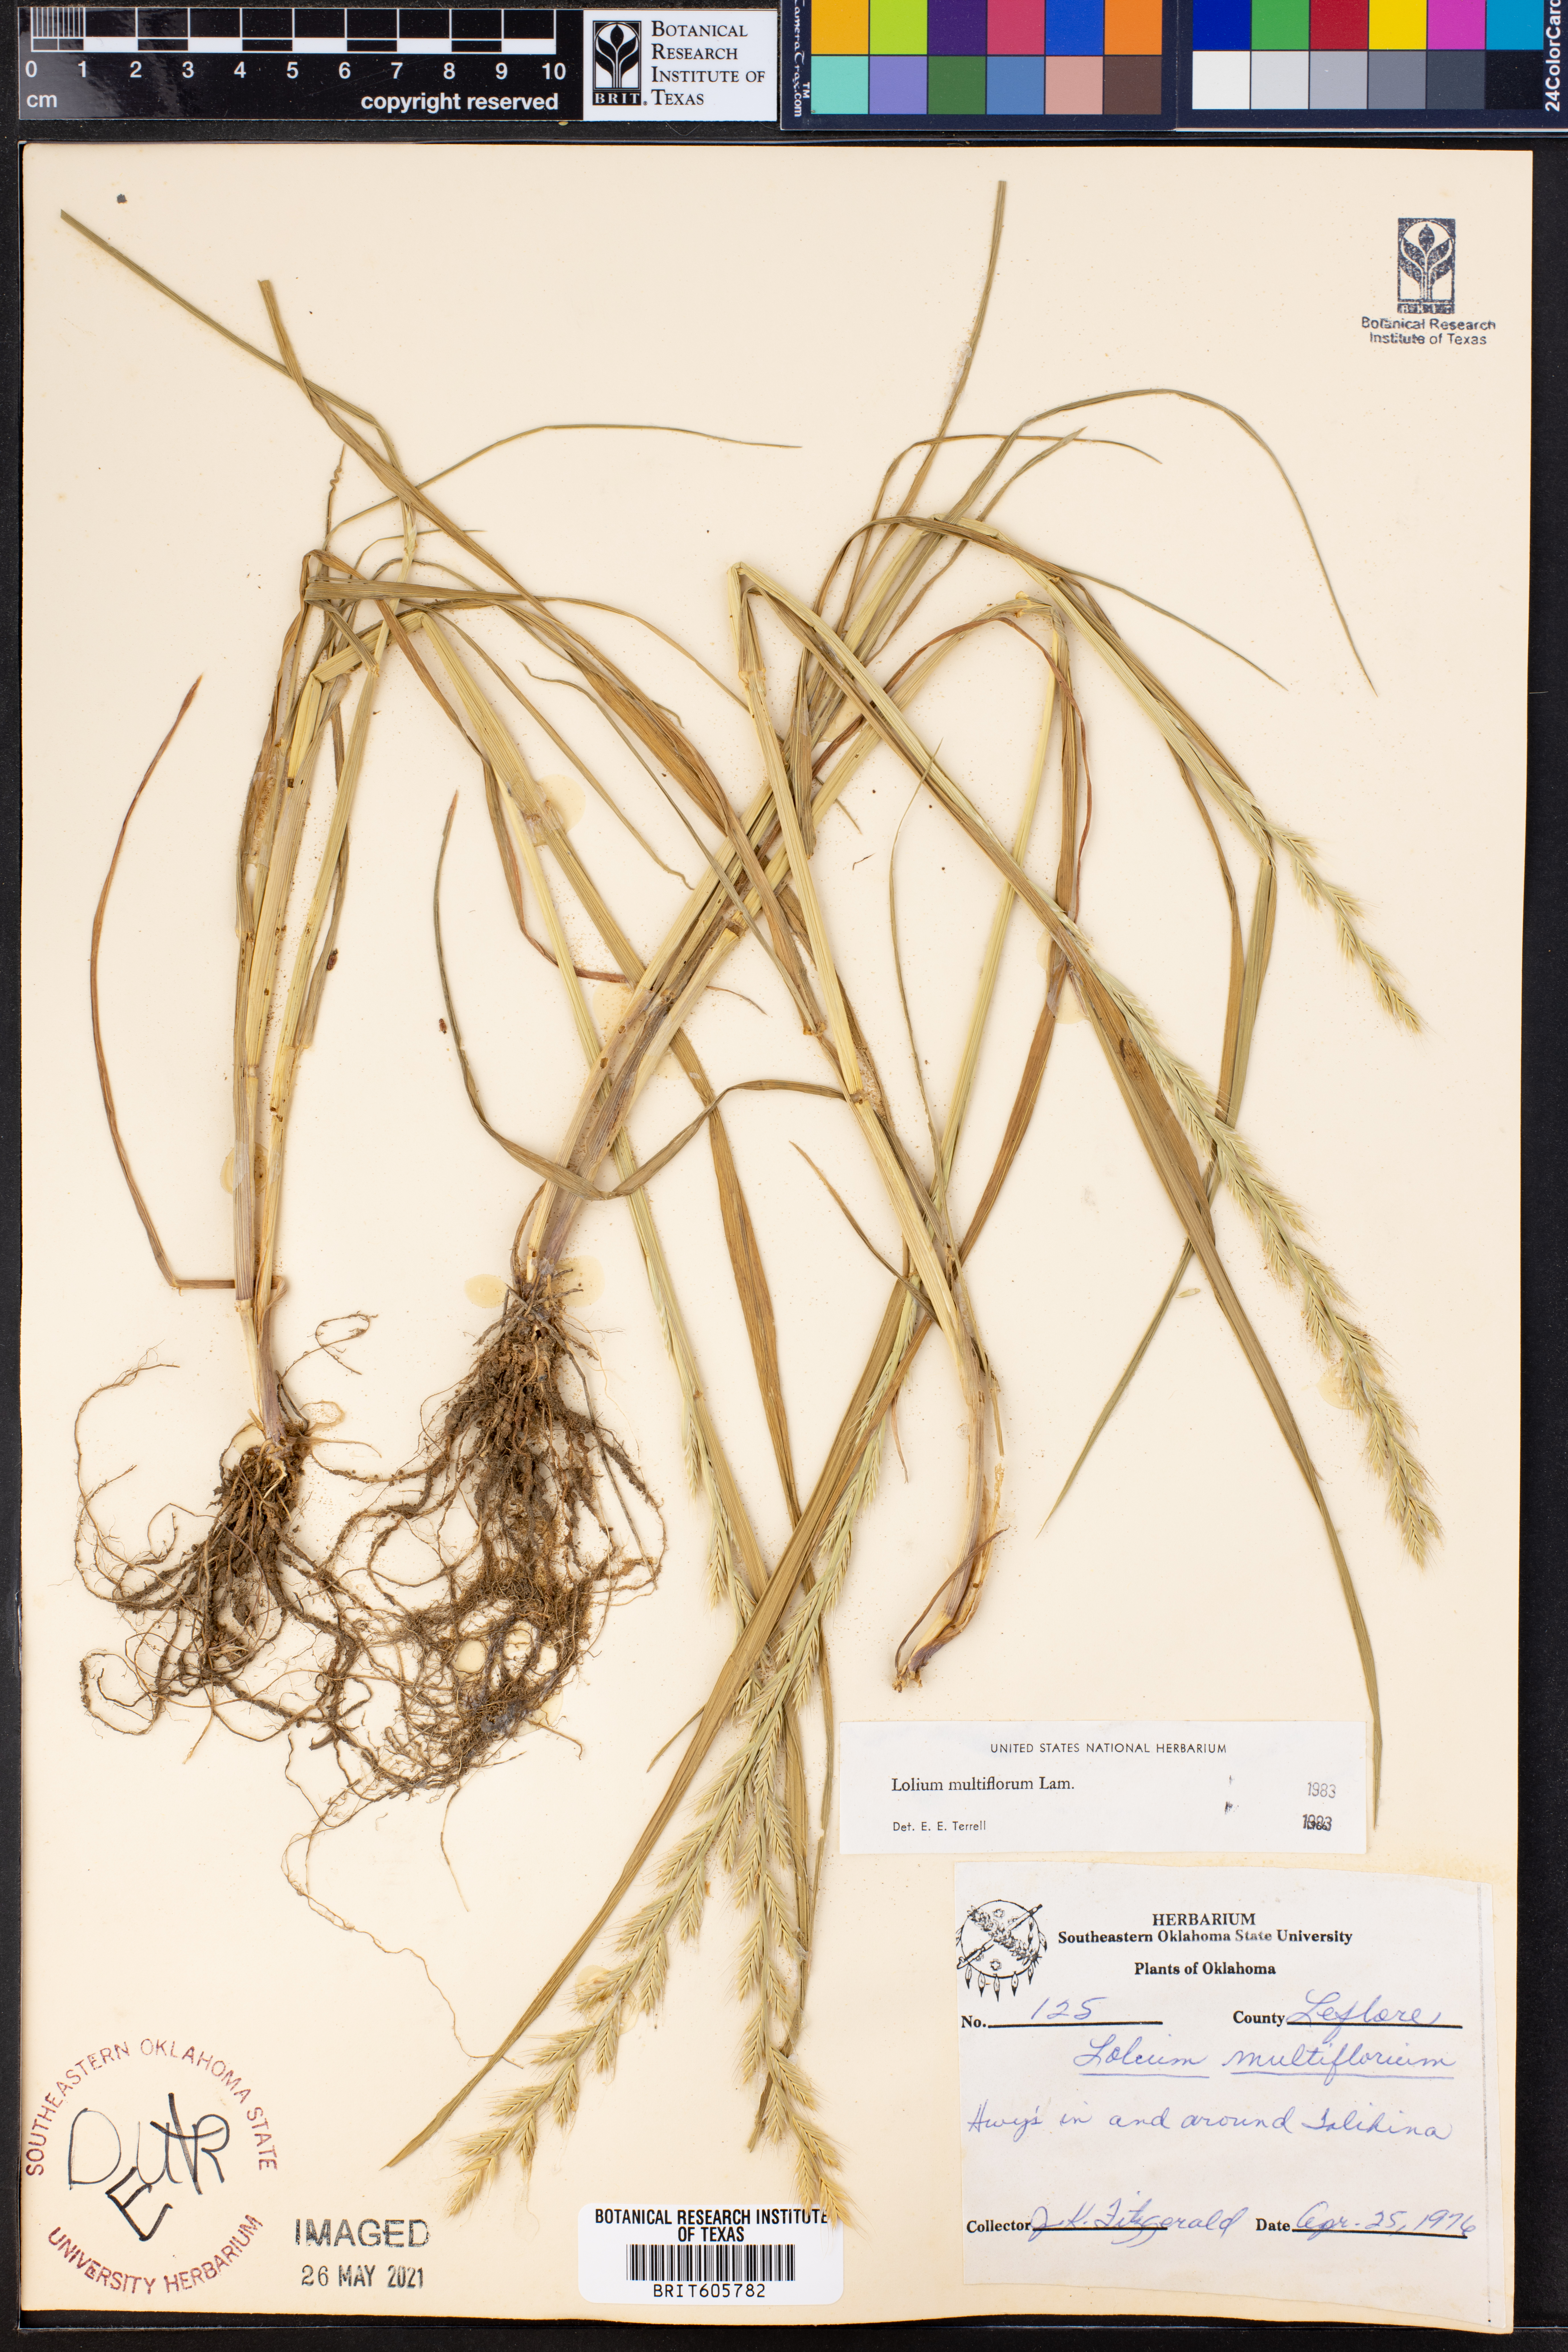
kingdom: Plantae
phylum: Tracheophyta
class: Liliopsida
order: Poales
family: Poaceae
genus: Lolium
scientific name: Lolium multiflorum
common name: Annual ryegrass
